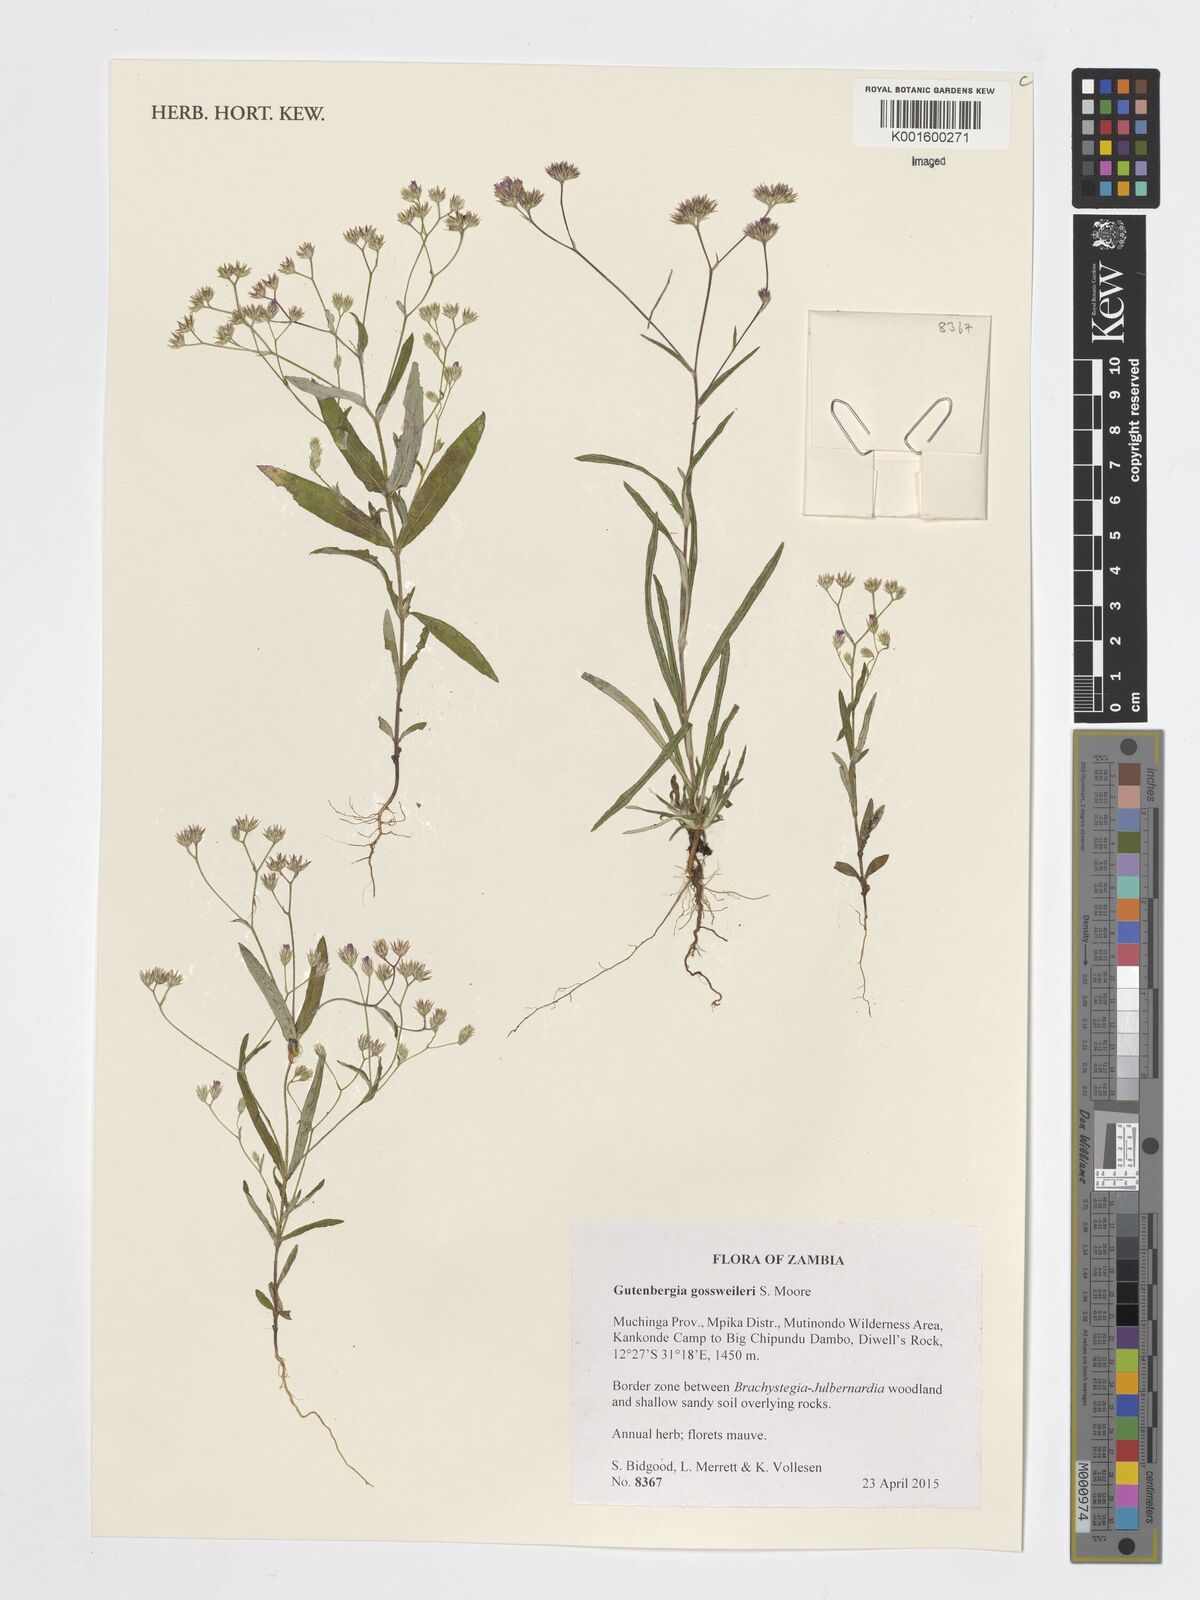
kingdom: Plantae
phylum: Tracheophyta
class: Magnoliopsida
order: Asterales
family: Asteraceae
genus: Gutenbergia
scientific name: Gutenbergia gossweileri
